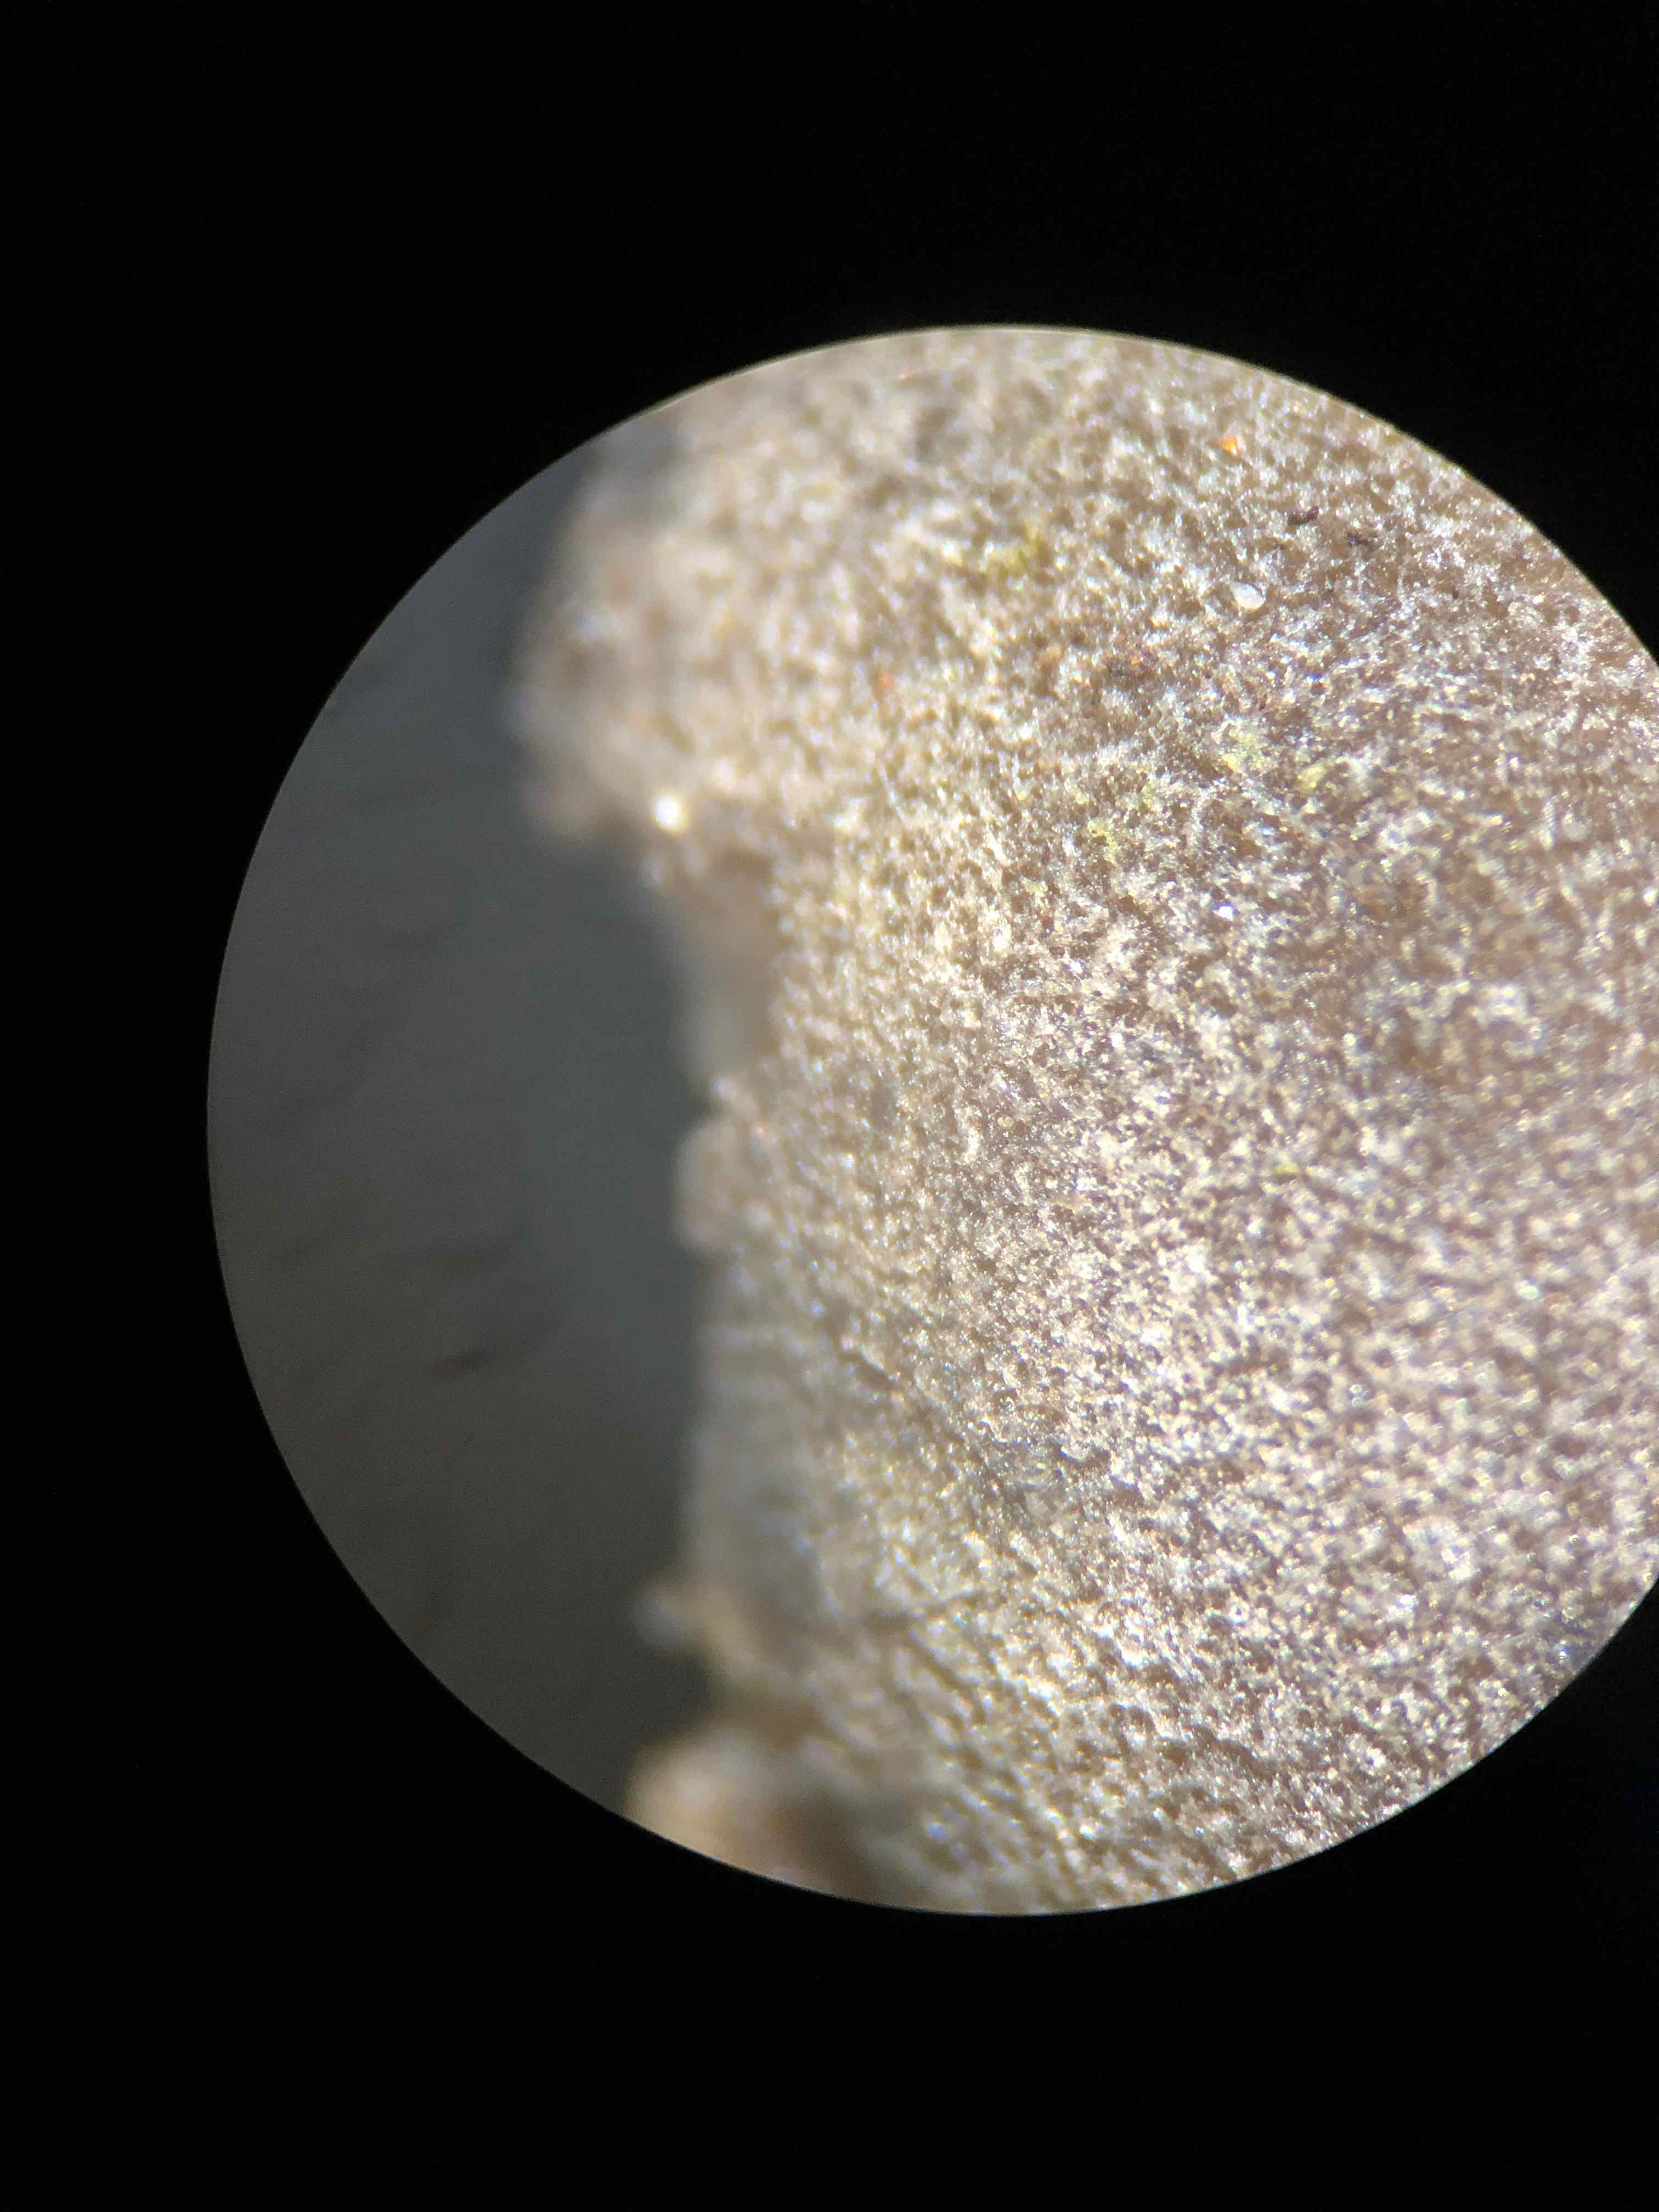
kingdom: Fungi
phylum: Ascomycota
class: Pezizomycetes
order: Pezizales
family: Helvellaceae
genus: Dissingia
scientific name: Dissingia leucomelaena
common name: sorthvid foldhat
